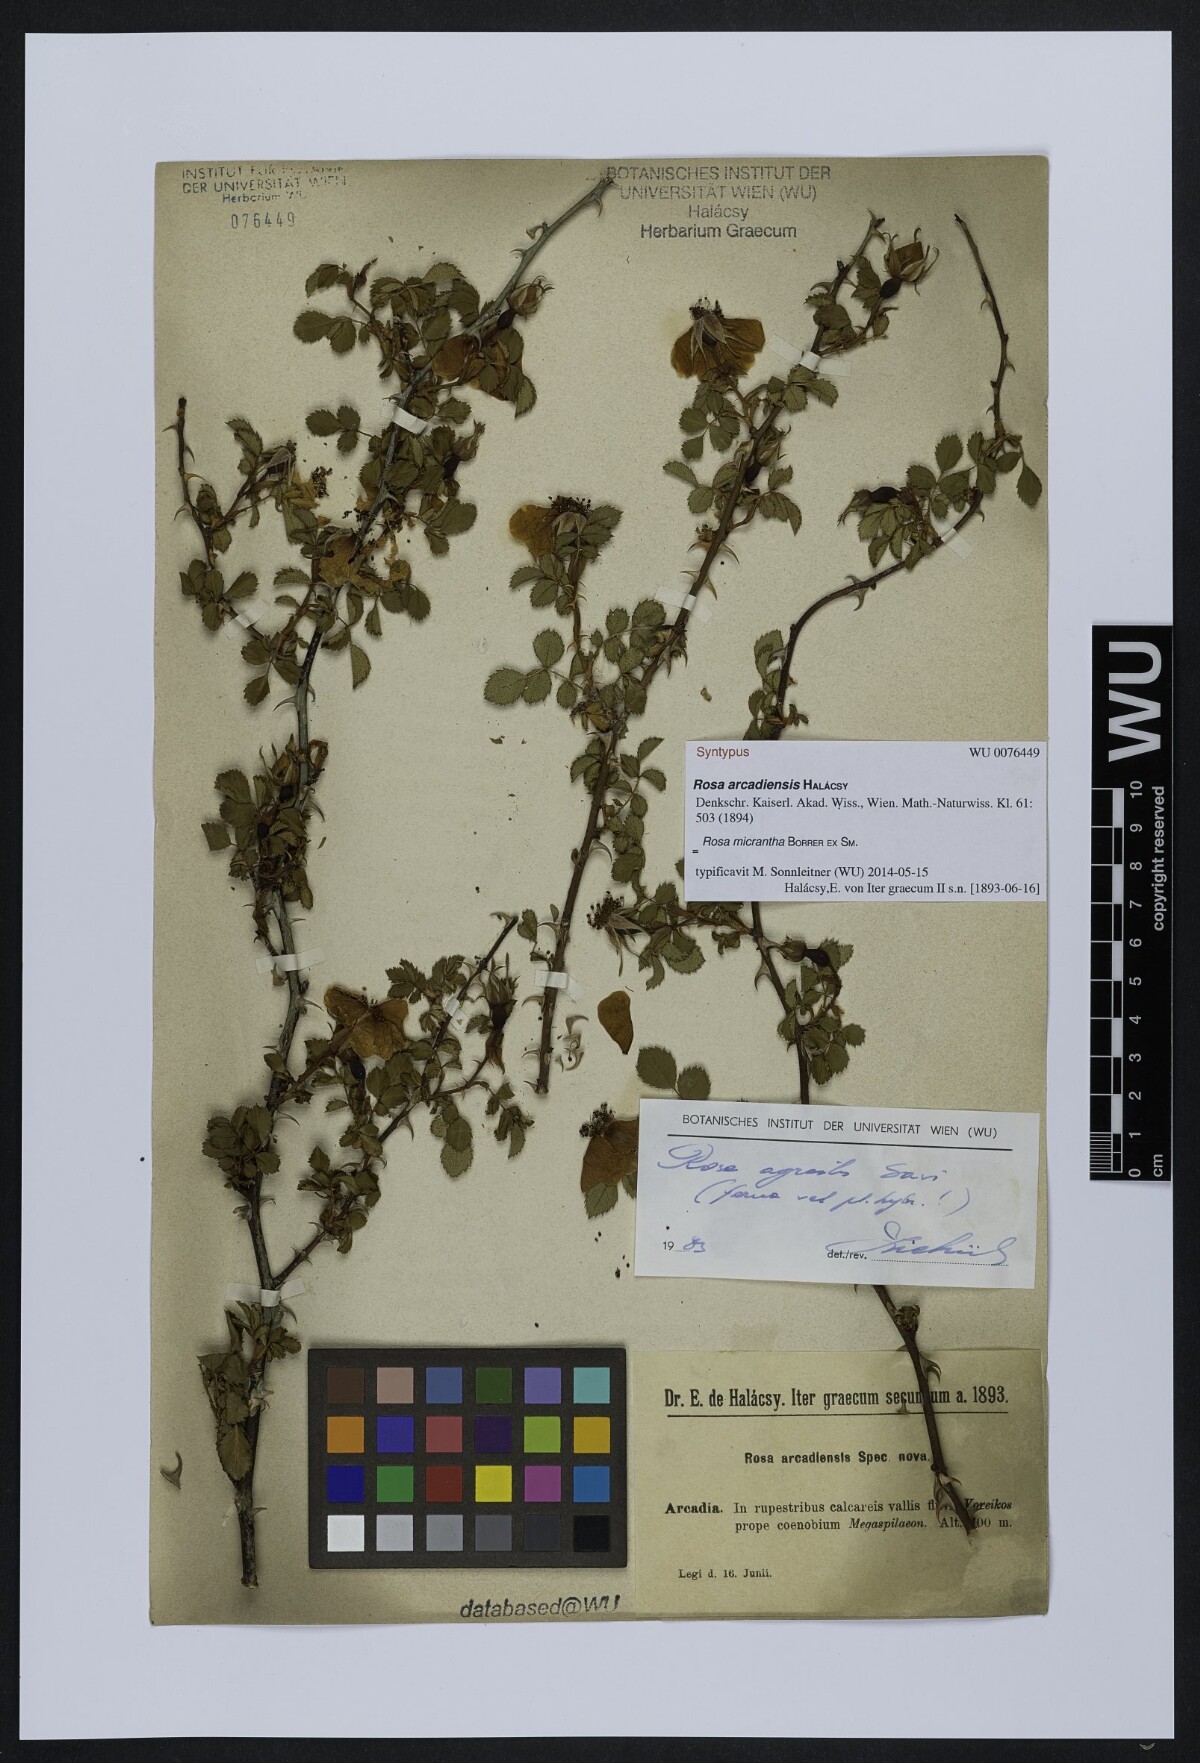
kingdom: Plantae
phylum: Tracheophyta
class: Magnoliopsida
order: Rosales
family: Rosaceae
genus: Rosa
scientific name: Rosa
